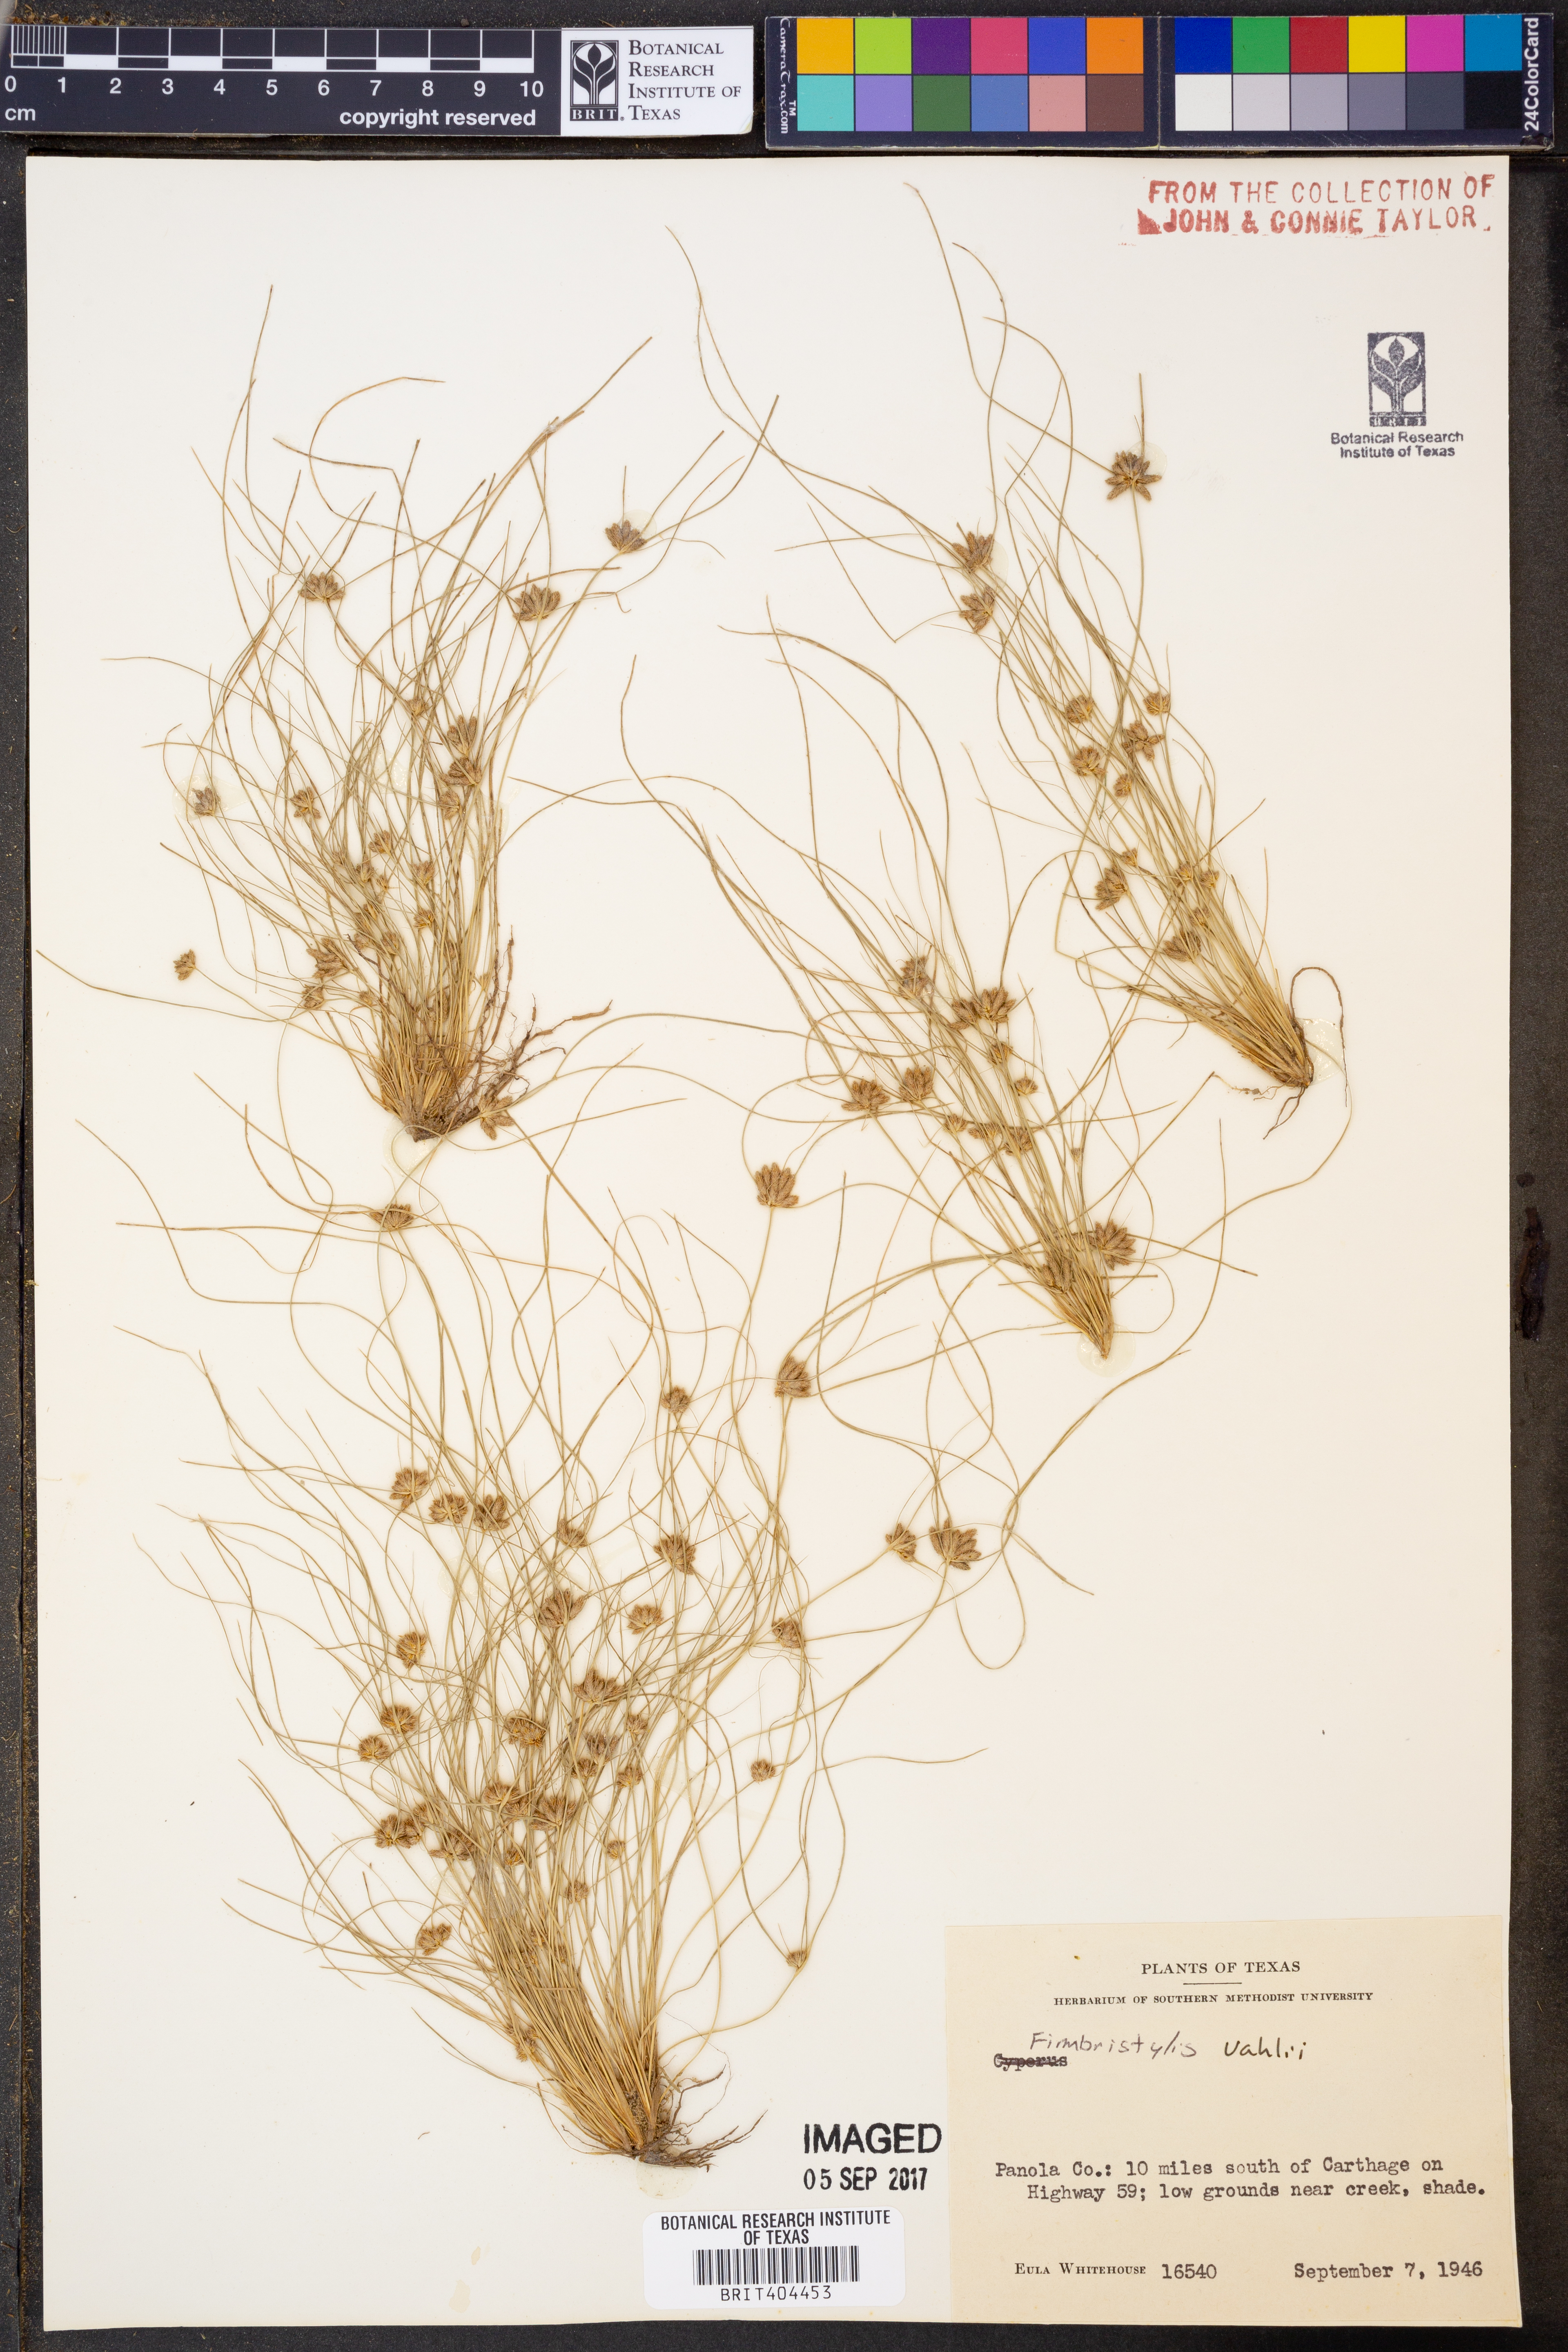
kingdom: Plantae
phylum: Tracheophyta
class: Liliopsida
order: Poales
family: Cyperaceae
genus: Fimbristylis
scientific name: Fimbristylis vahlii
